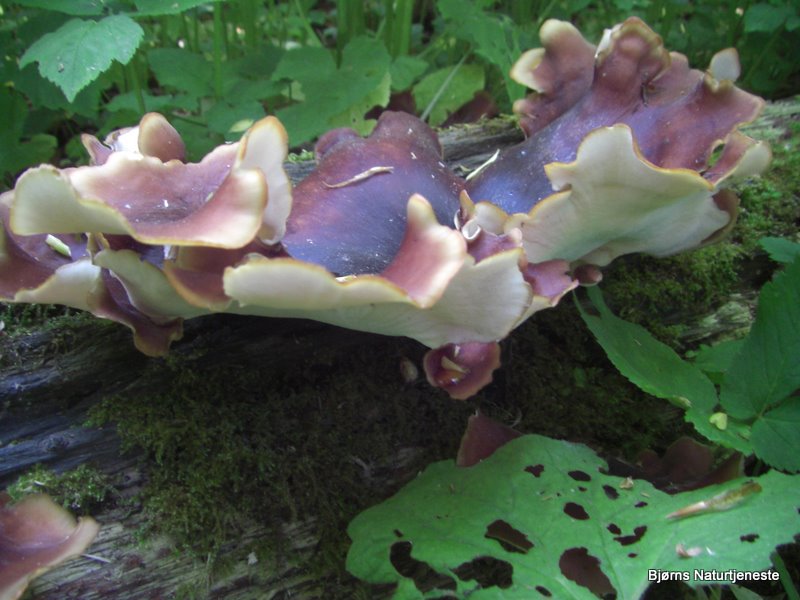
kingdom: Fungi
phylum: Basidiomycota
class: Agaricomycetes
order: Polyporales
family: Polyporaceae
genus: Picipes
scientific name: Picipes badius
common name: kastaniebrun stilkporesvamp
